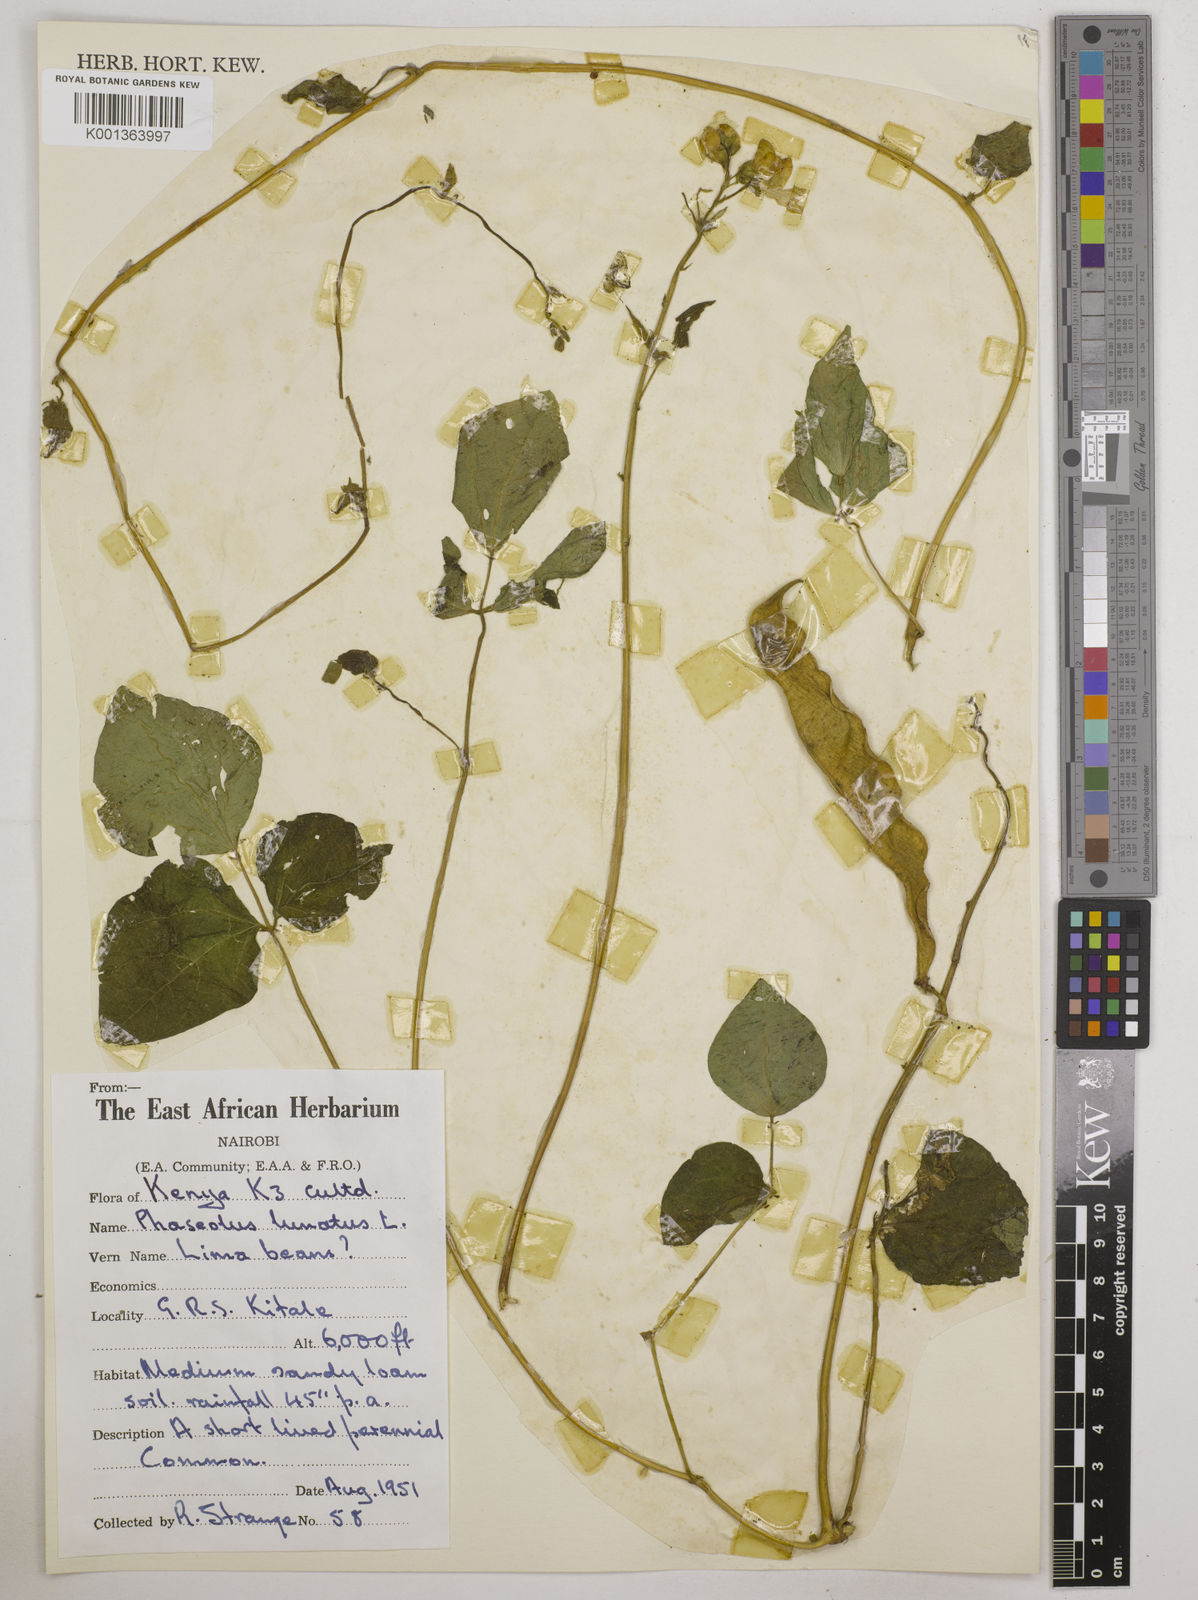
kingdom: Plantae
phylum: Tracheophyta
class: Magnoliopsida
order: Fabales
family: Fabaceae
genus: Phaseolus
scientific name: Phaseolus lunatus
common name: Sieva bean
